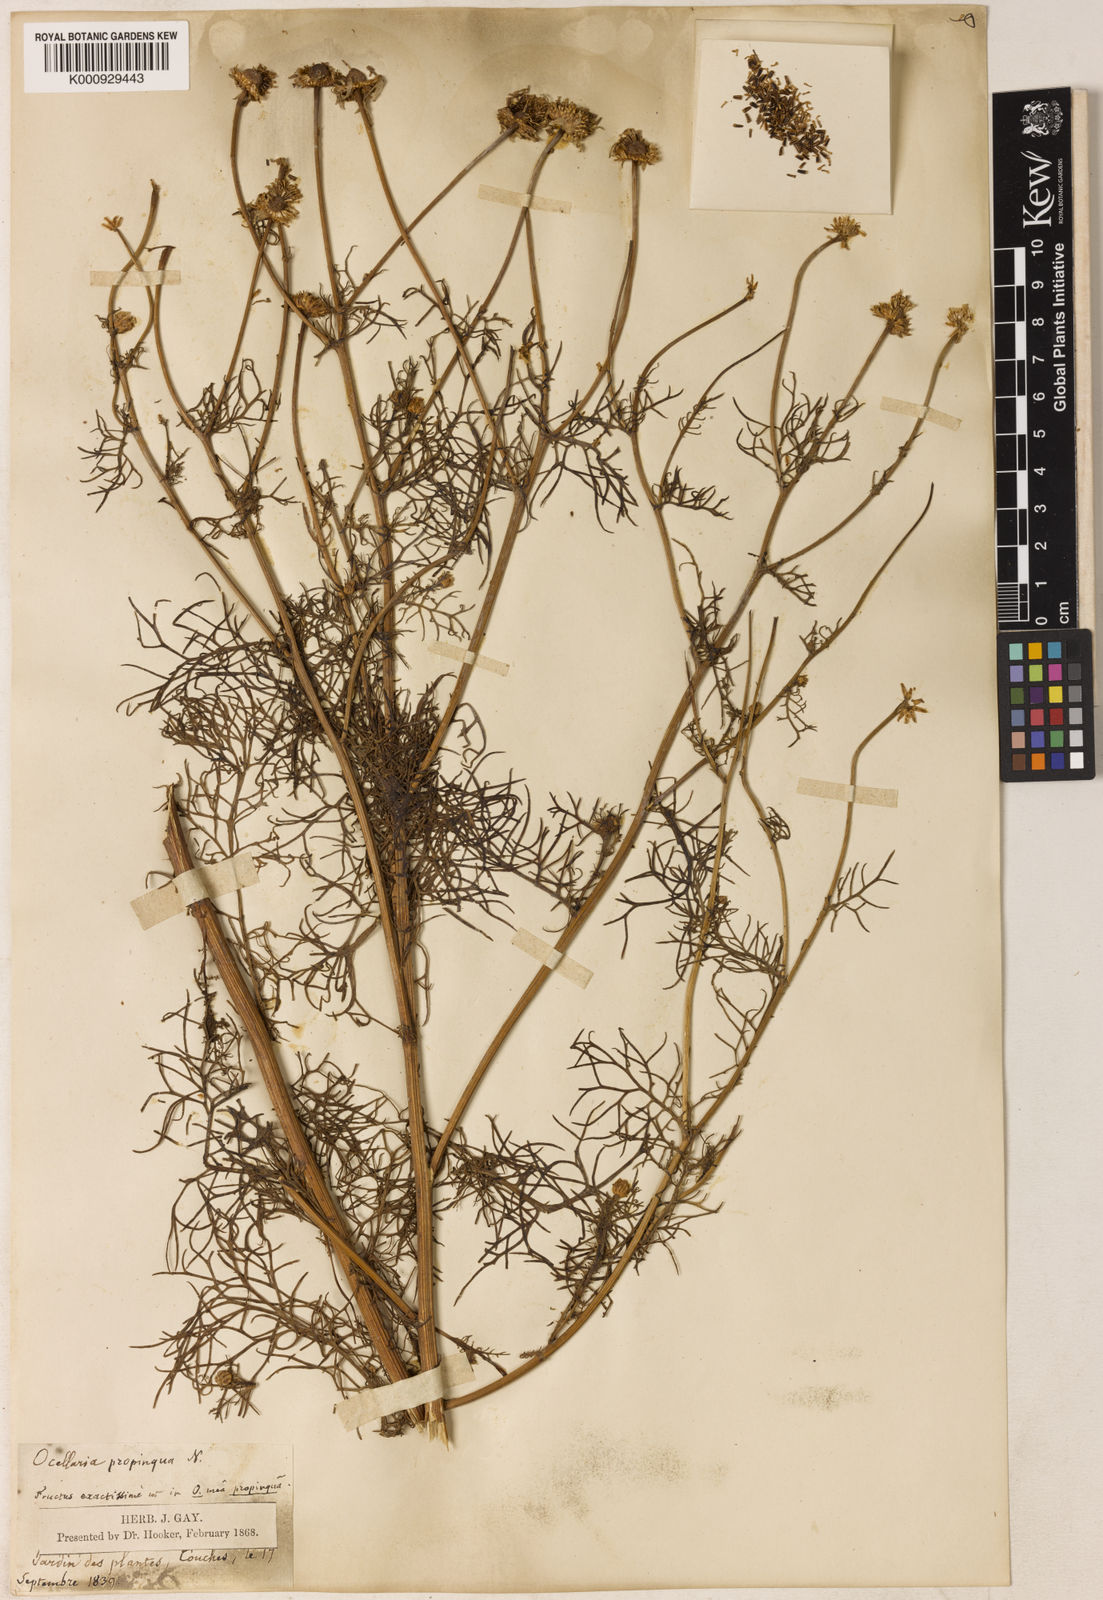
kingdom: Plantae
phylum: Tracheophyta
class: Magnoliopsida
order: Asterales
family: Asteraceae
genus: Otospermum
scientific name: Otospermum glabrum
